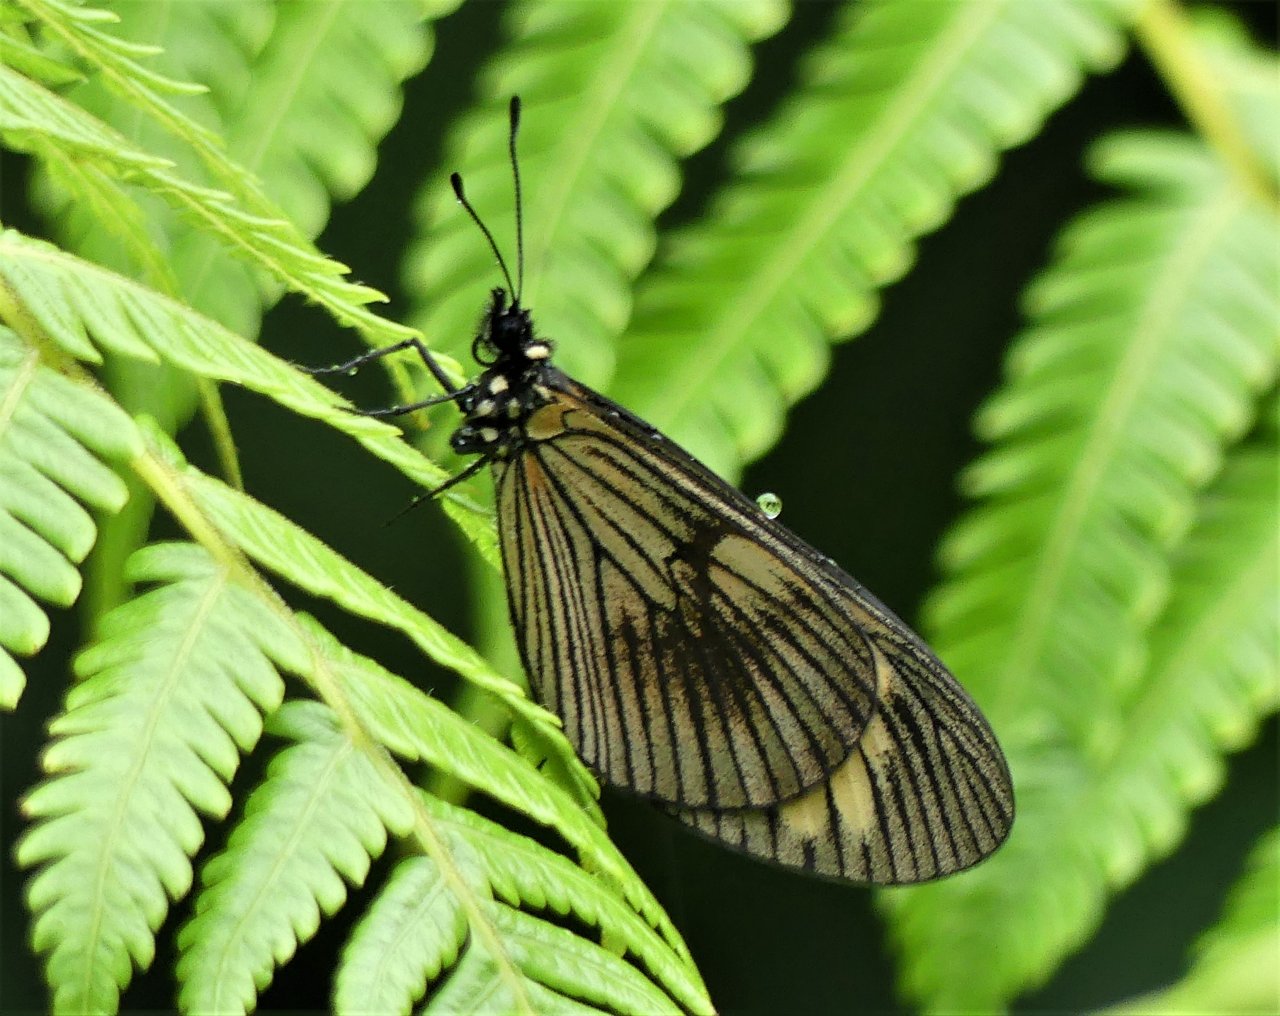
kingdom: Animalia
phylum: Arthropoda
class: Insecta
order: Lepidoptera
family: Nymphalidae
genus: Actinote
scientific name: Actinote anteas
